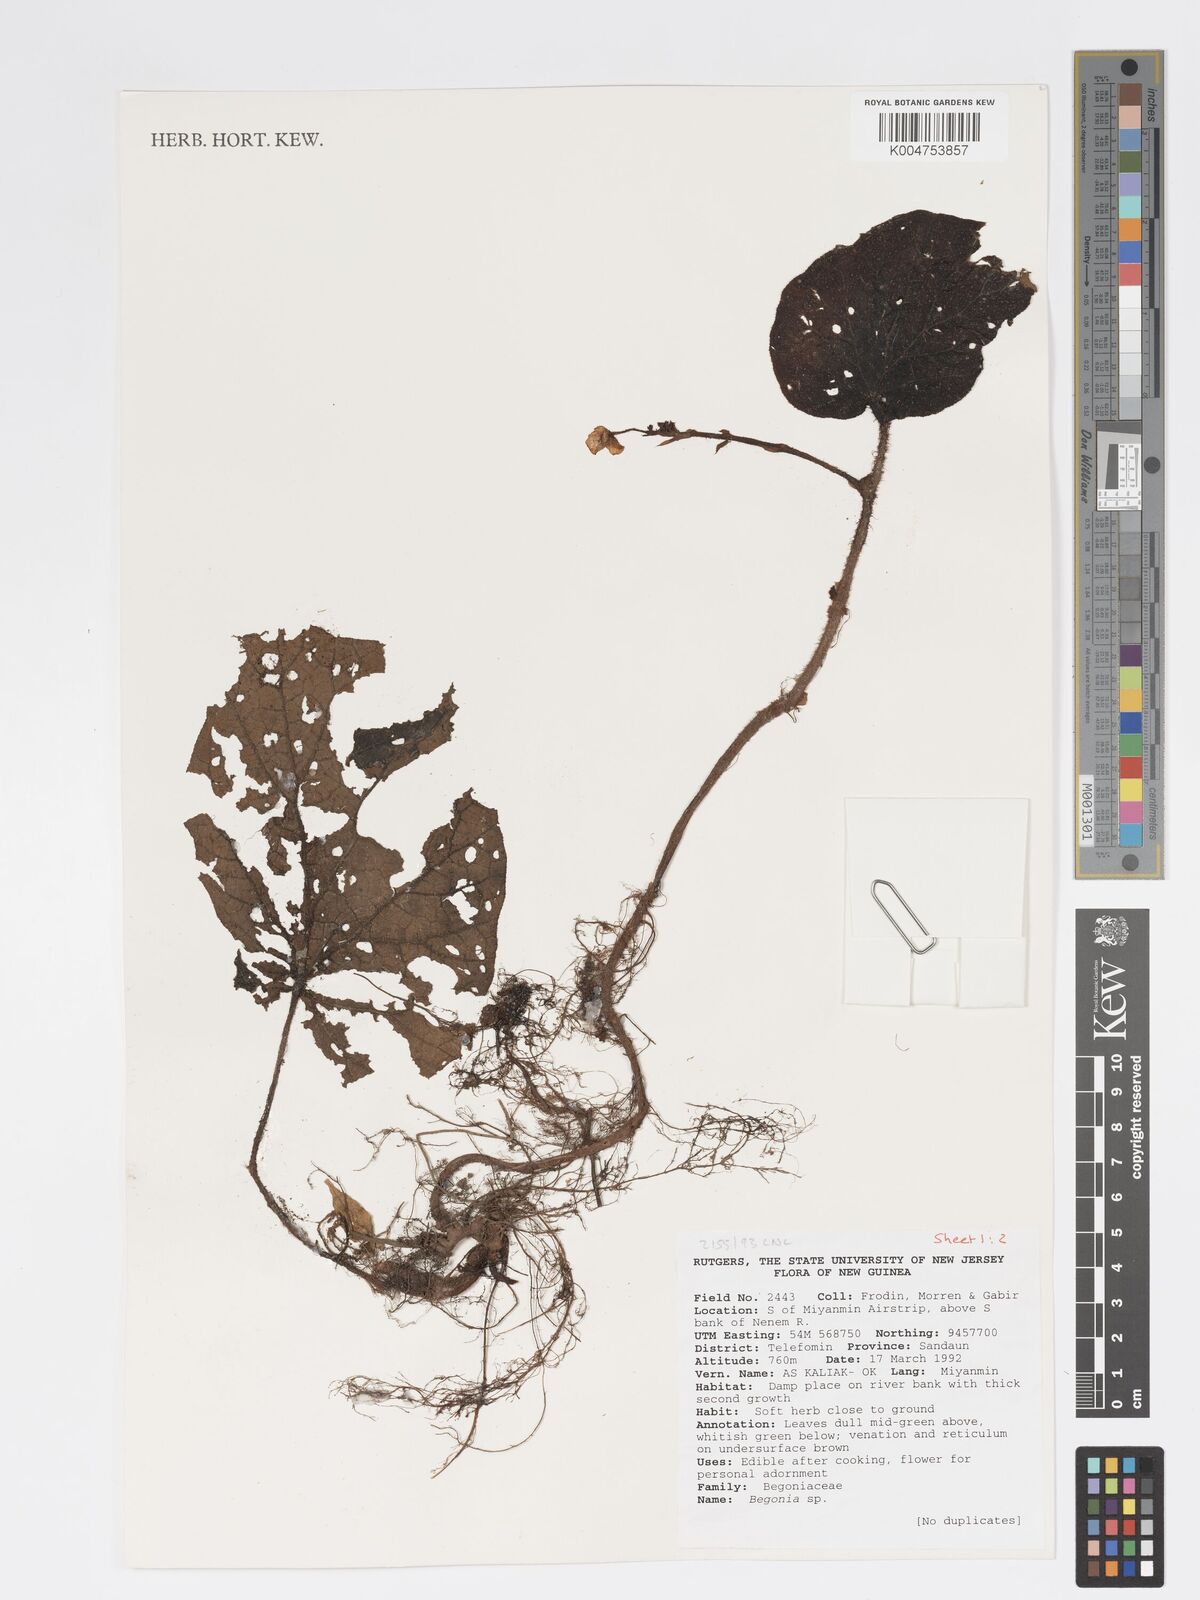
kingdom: Plantae
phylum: Tracheophyta
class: Magnoliopsida
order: Cucurbitales
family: Begoniaceae
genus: Begonia
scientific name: Begonia
